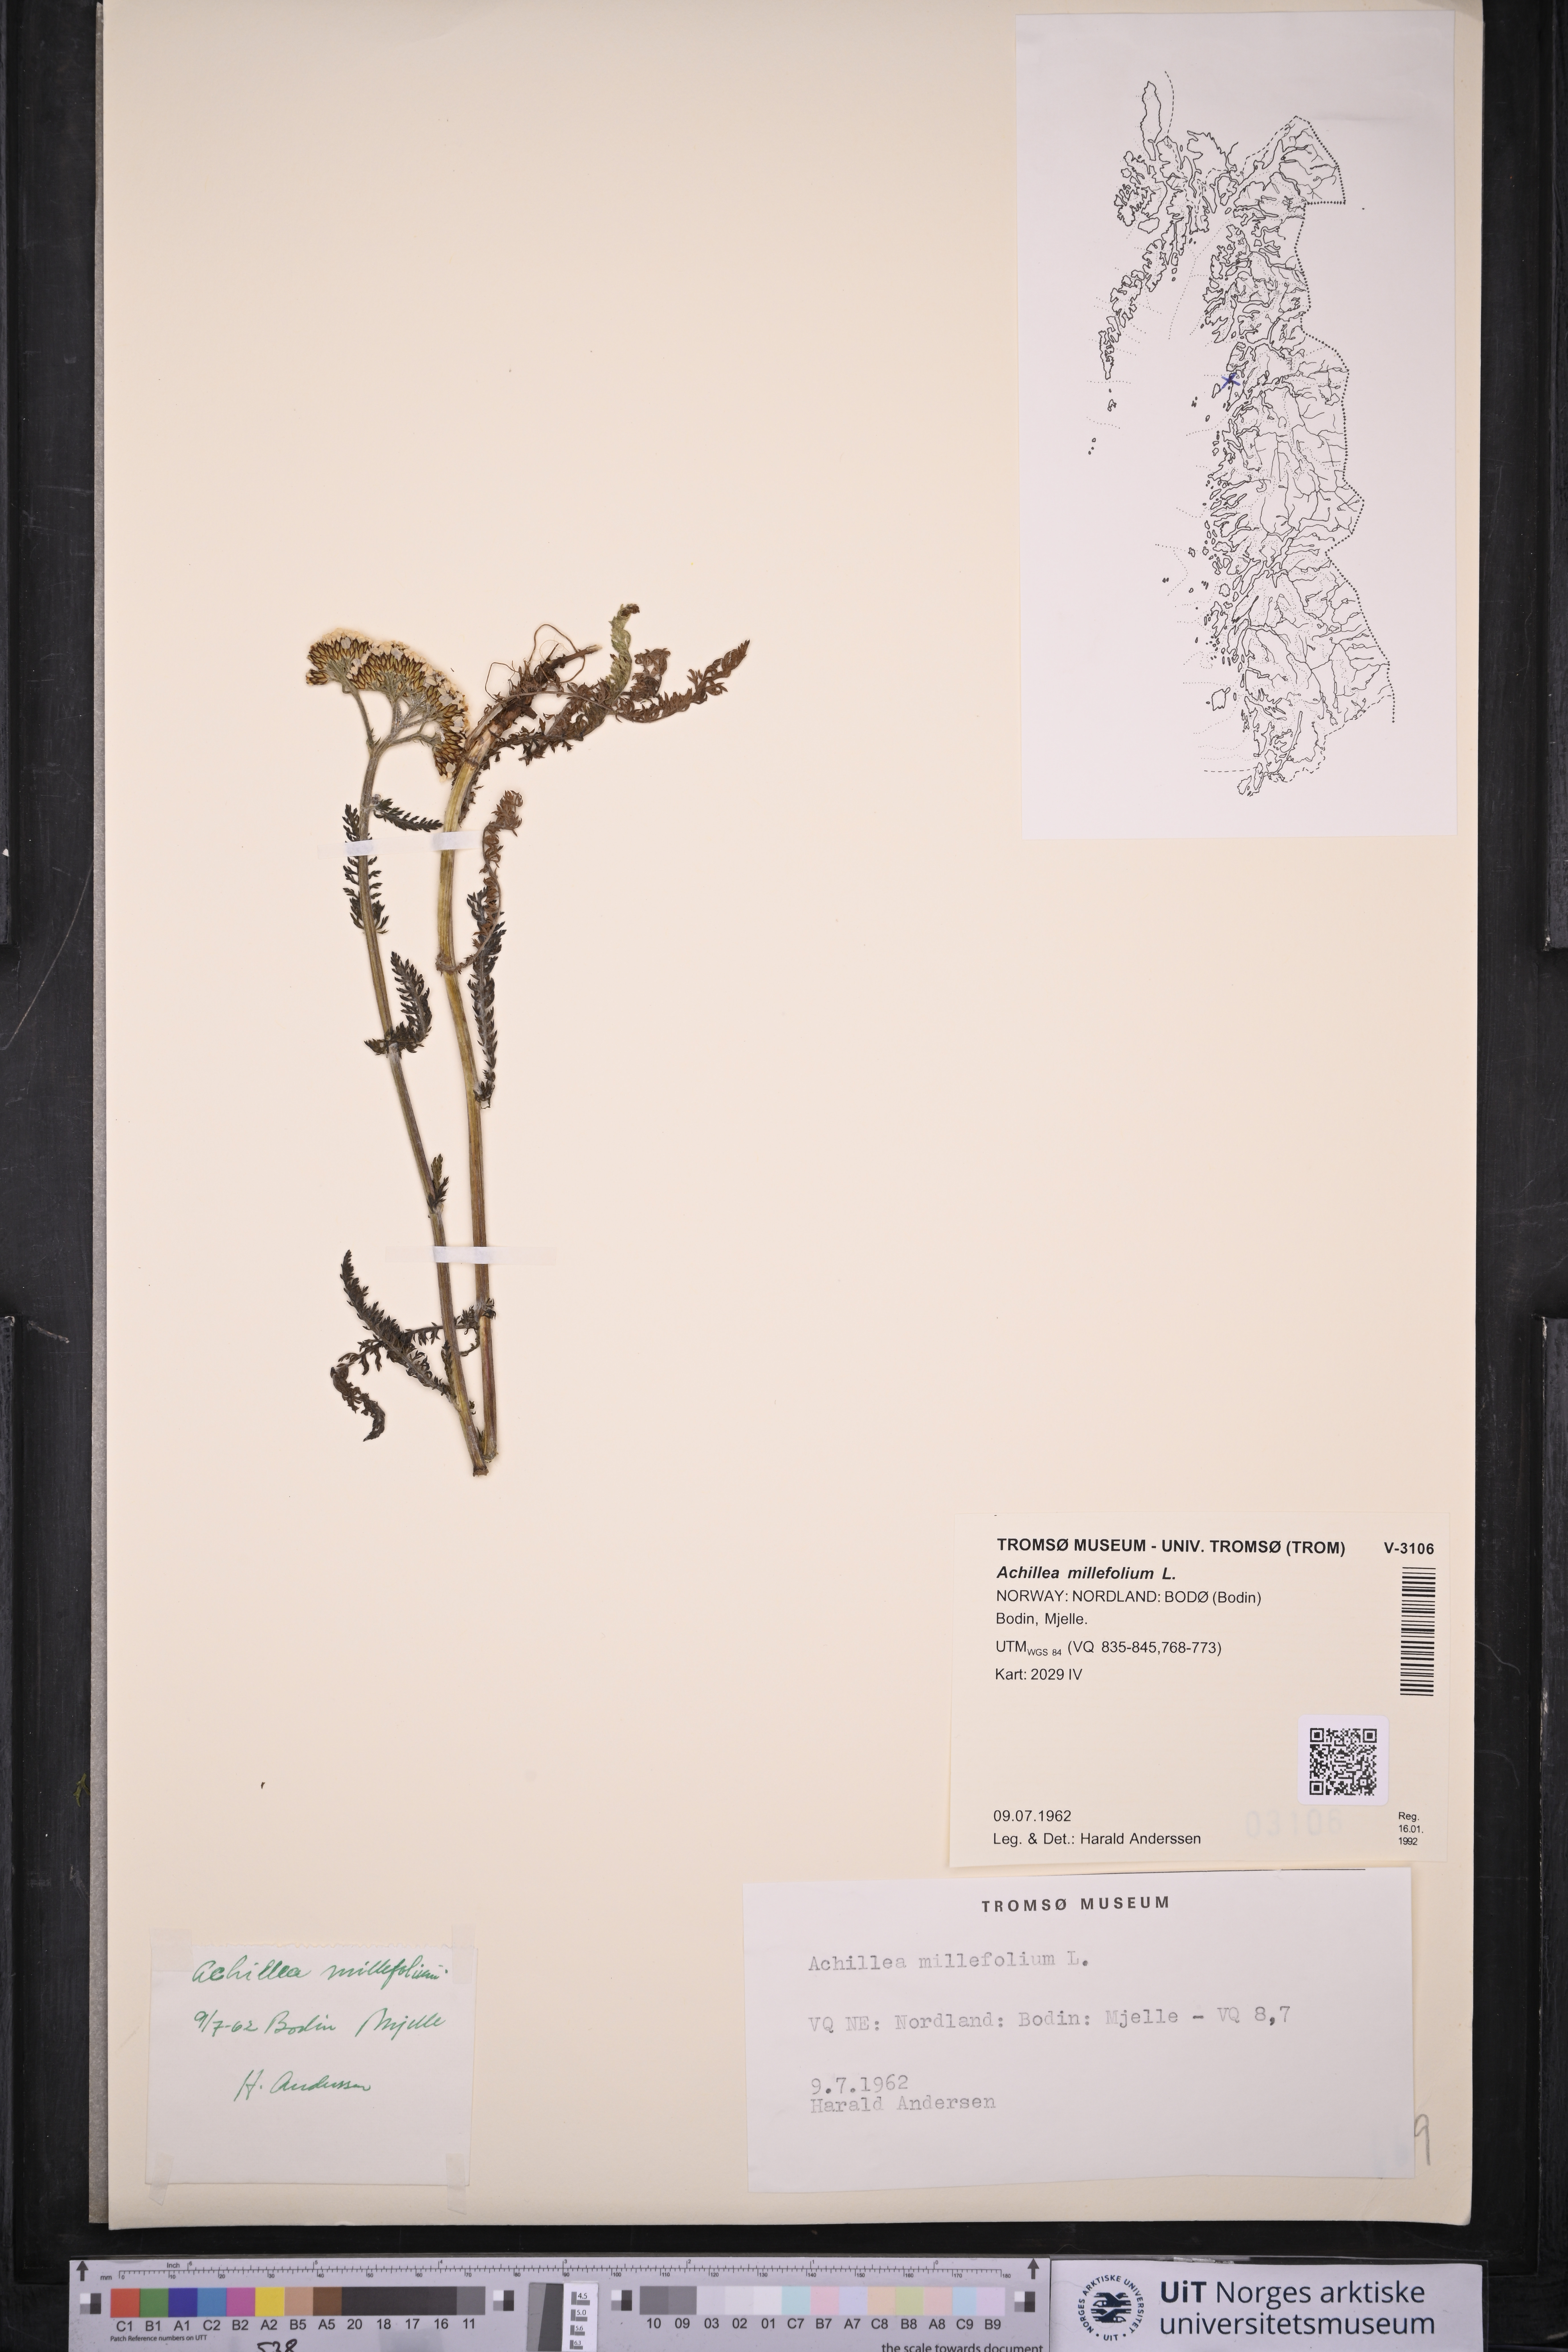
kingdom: Plantae
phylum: Tracheophyta
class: Magnoliopsida
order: Asterales
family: Asteraceae
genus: Achillea
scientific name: Achillea millefolium
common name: Yarrow
